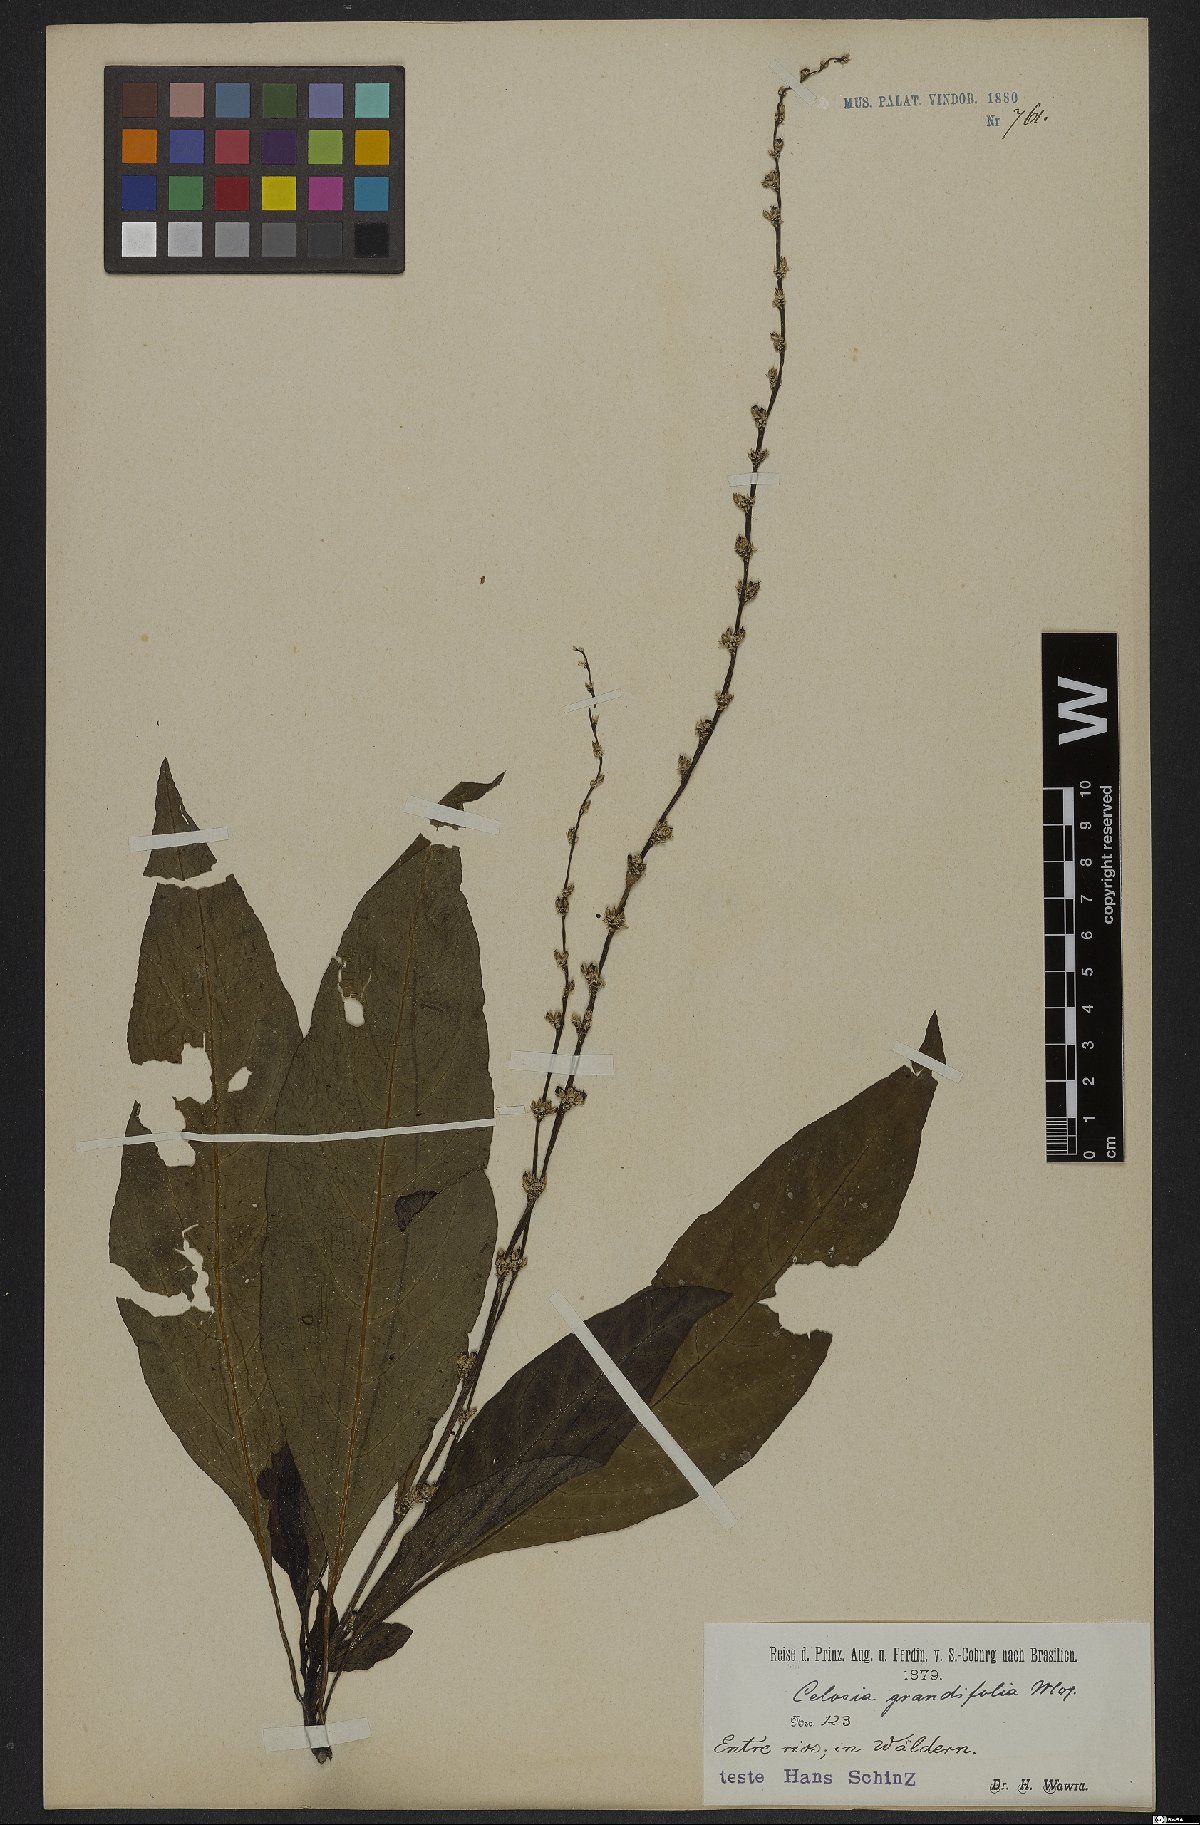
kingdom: Plantae
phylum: Tracheophyta
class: Magnoliopsida
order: Caryophyllales
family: Amaranthaceae
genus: Celosia
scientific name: Celosia grandifolia
